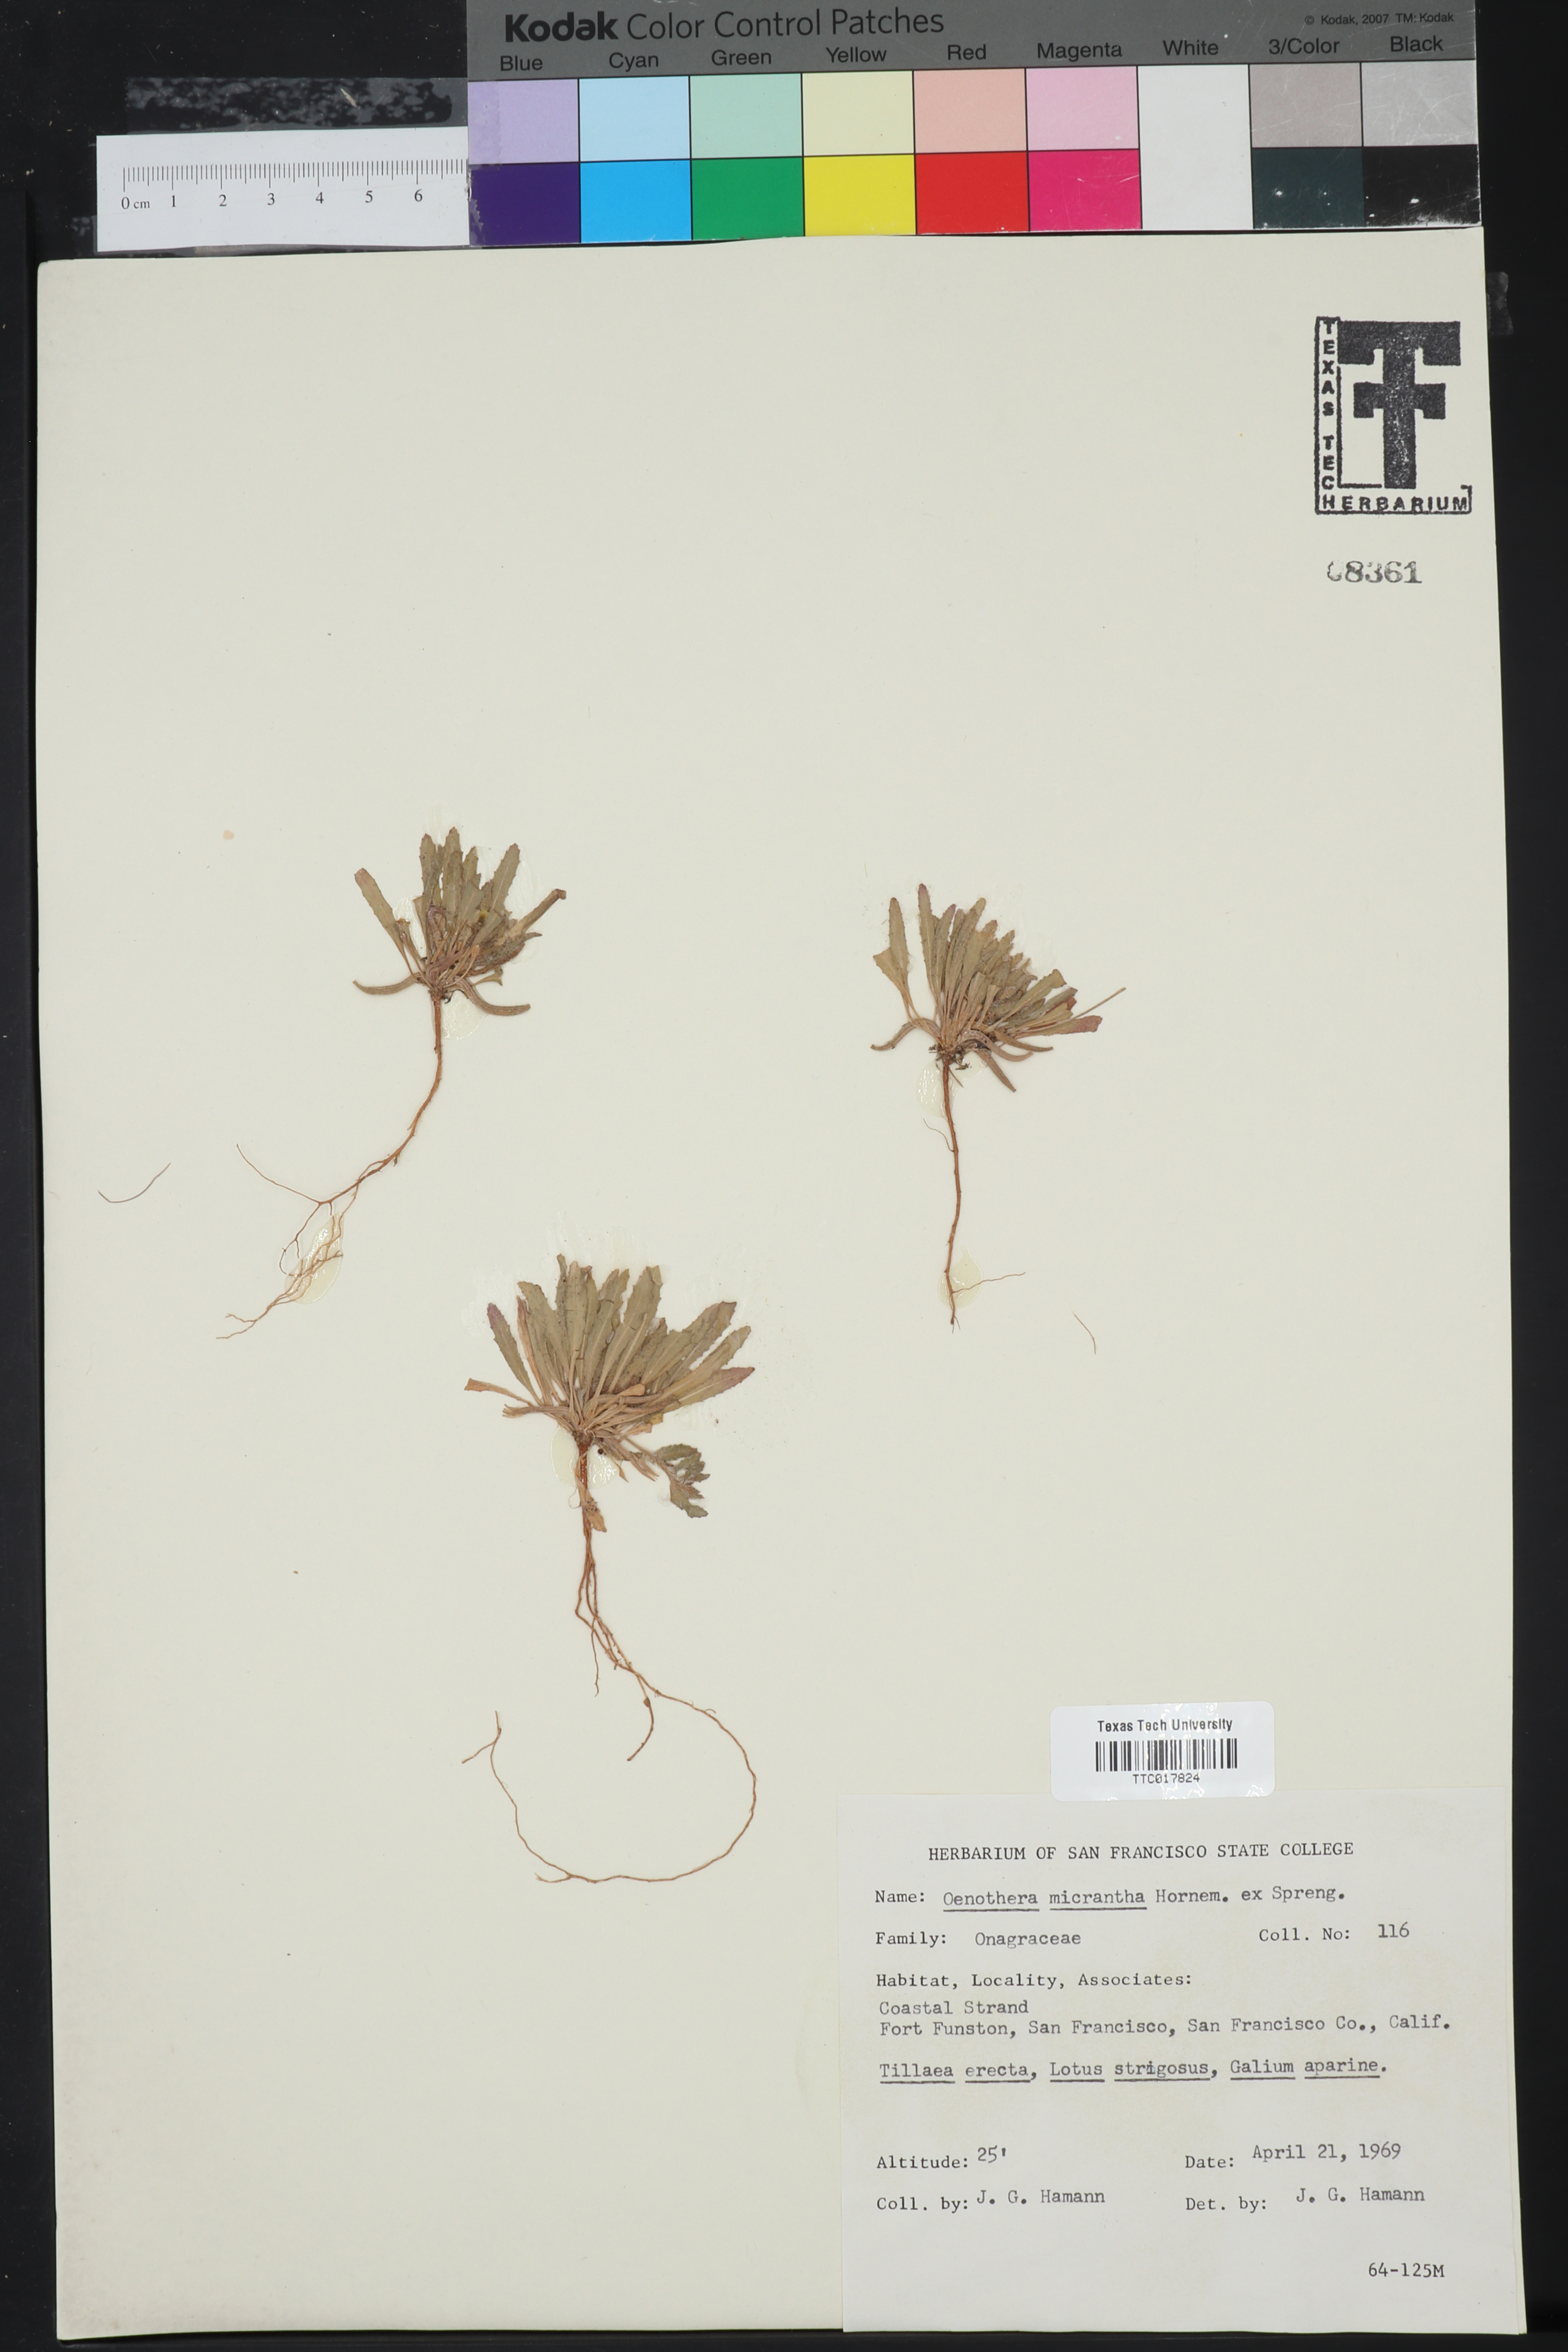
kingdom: Plantae
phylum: Tracheophyta
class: Magnoliopsida
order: Myrtales
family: Onagraceae
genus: Camissoniopsis
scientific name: Camissoniopsis micrantha
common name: Miniature suncup
